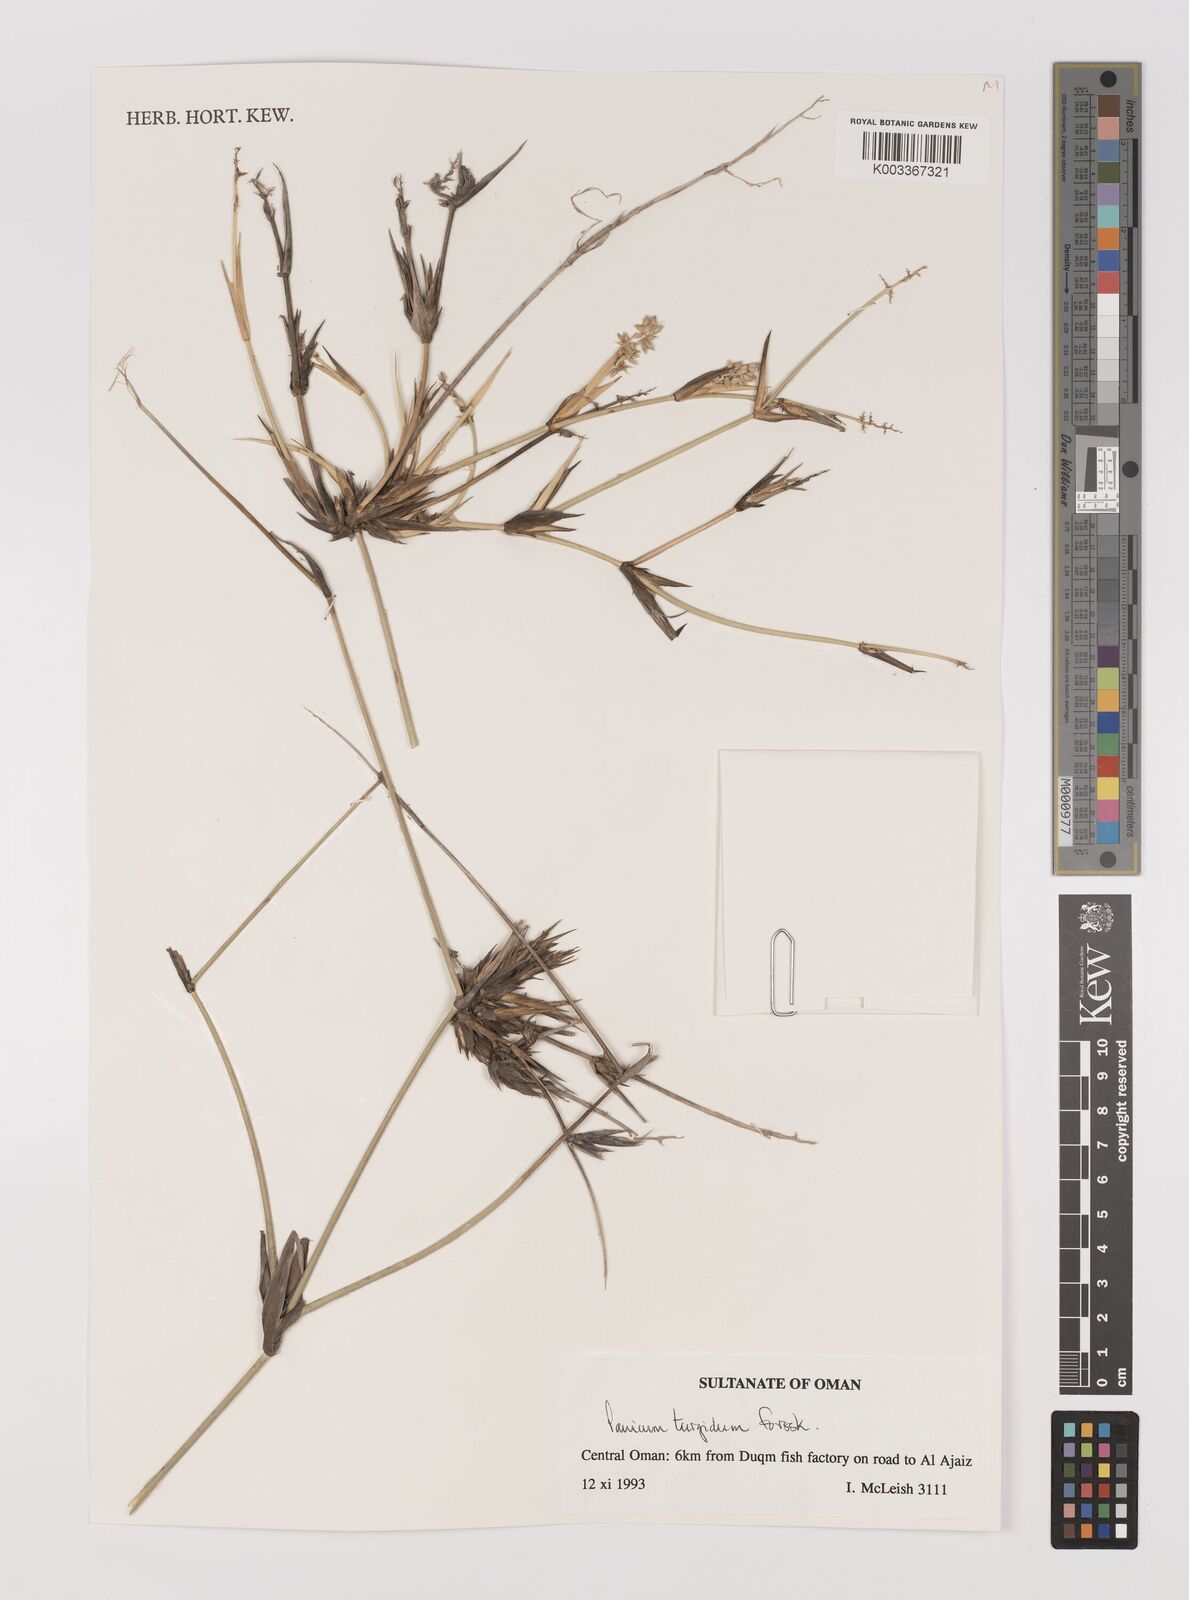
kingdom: Plantae
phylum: Tracheophyta
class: Liliopsida
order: Poales
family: Poaceae
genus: Panicum
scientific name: Panicum turgidum
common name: Desert grass
